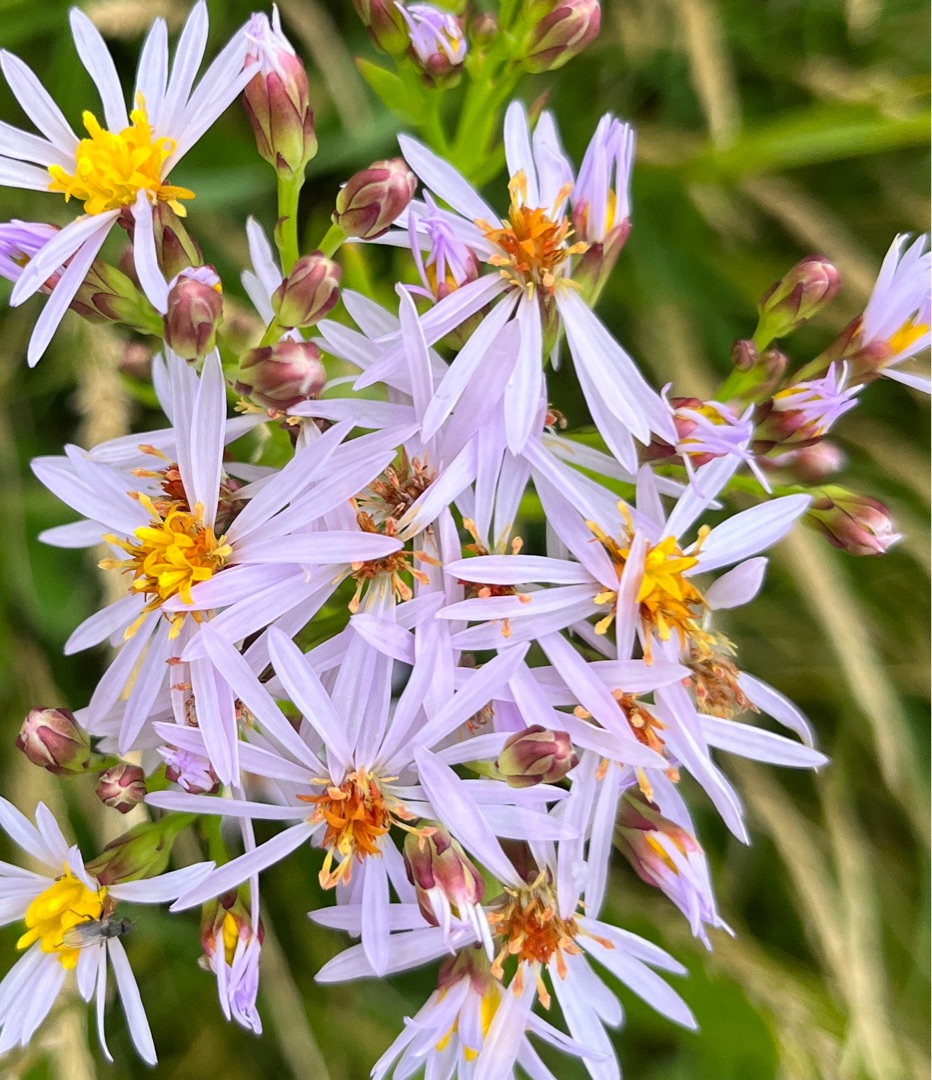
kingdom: Plantae
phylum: Tracheophyta
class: Magnoliopsida
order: Asterales
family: Asteraceae
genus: Tripolium
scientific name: Tripolium pannonicum
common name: Strandasters
